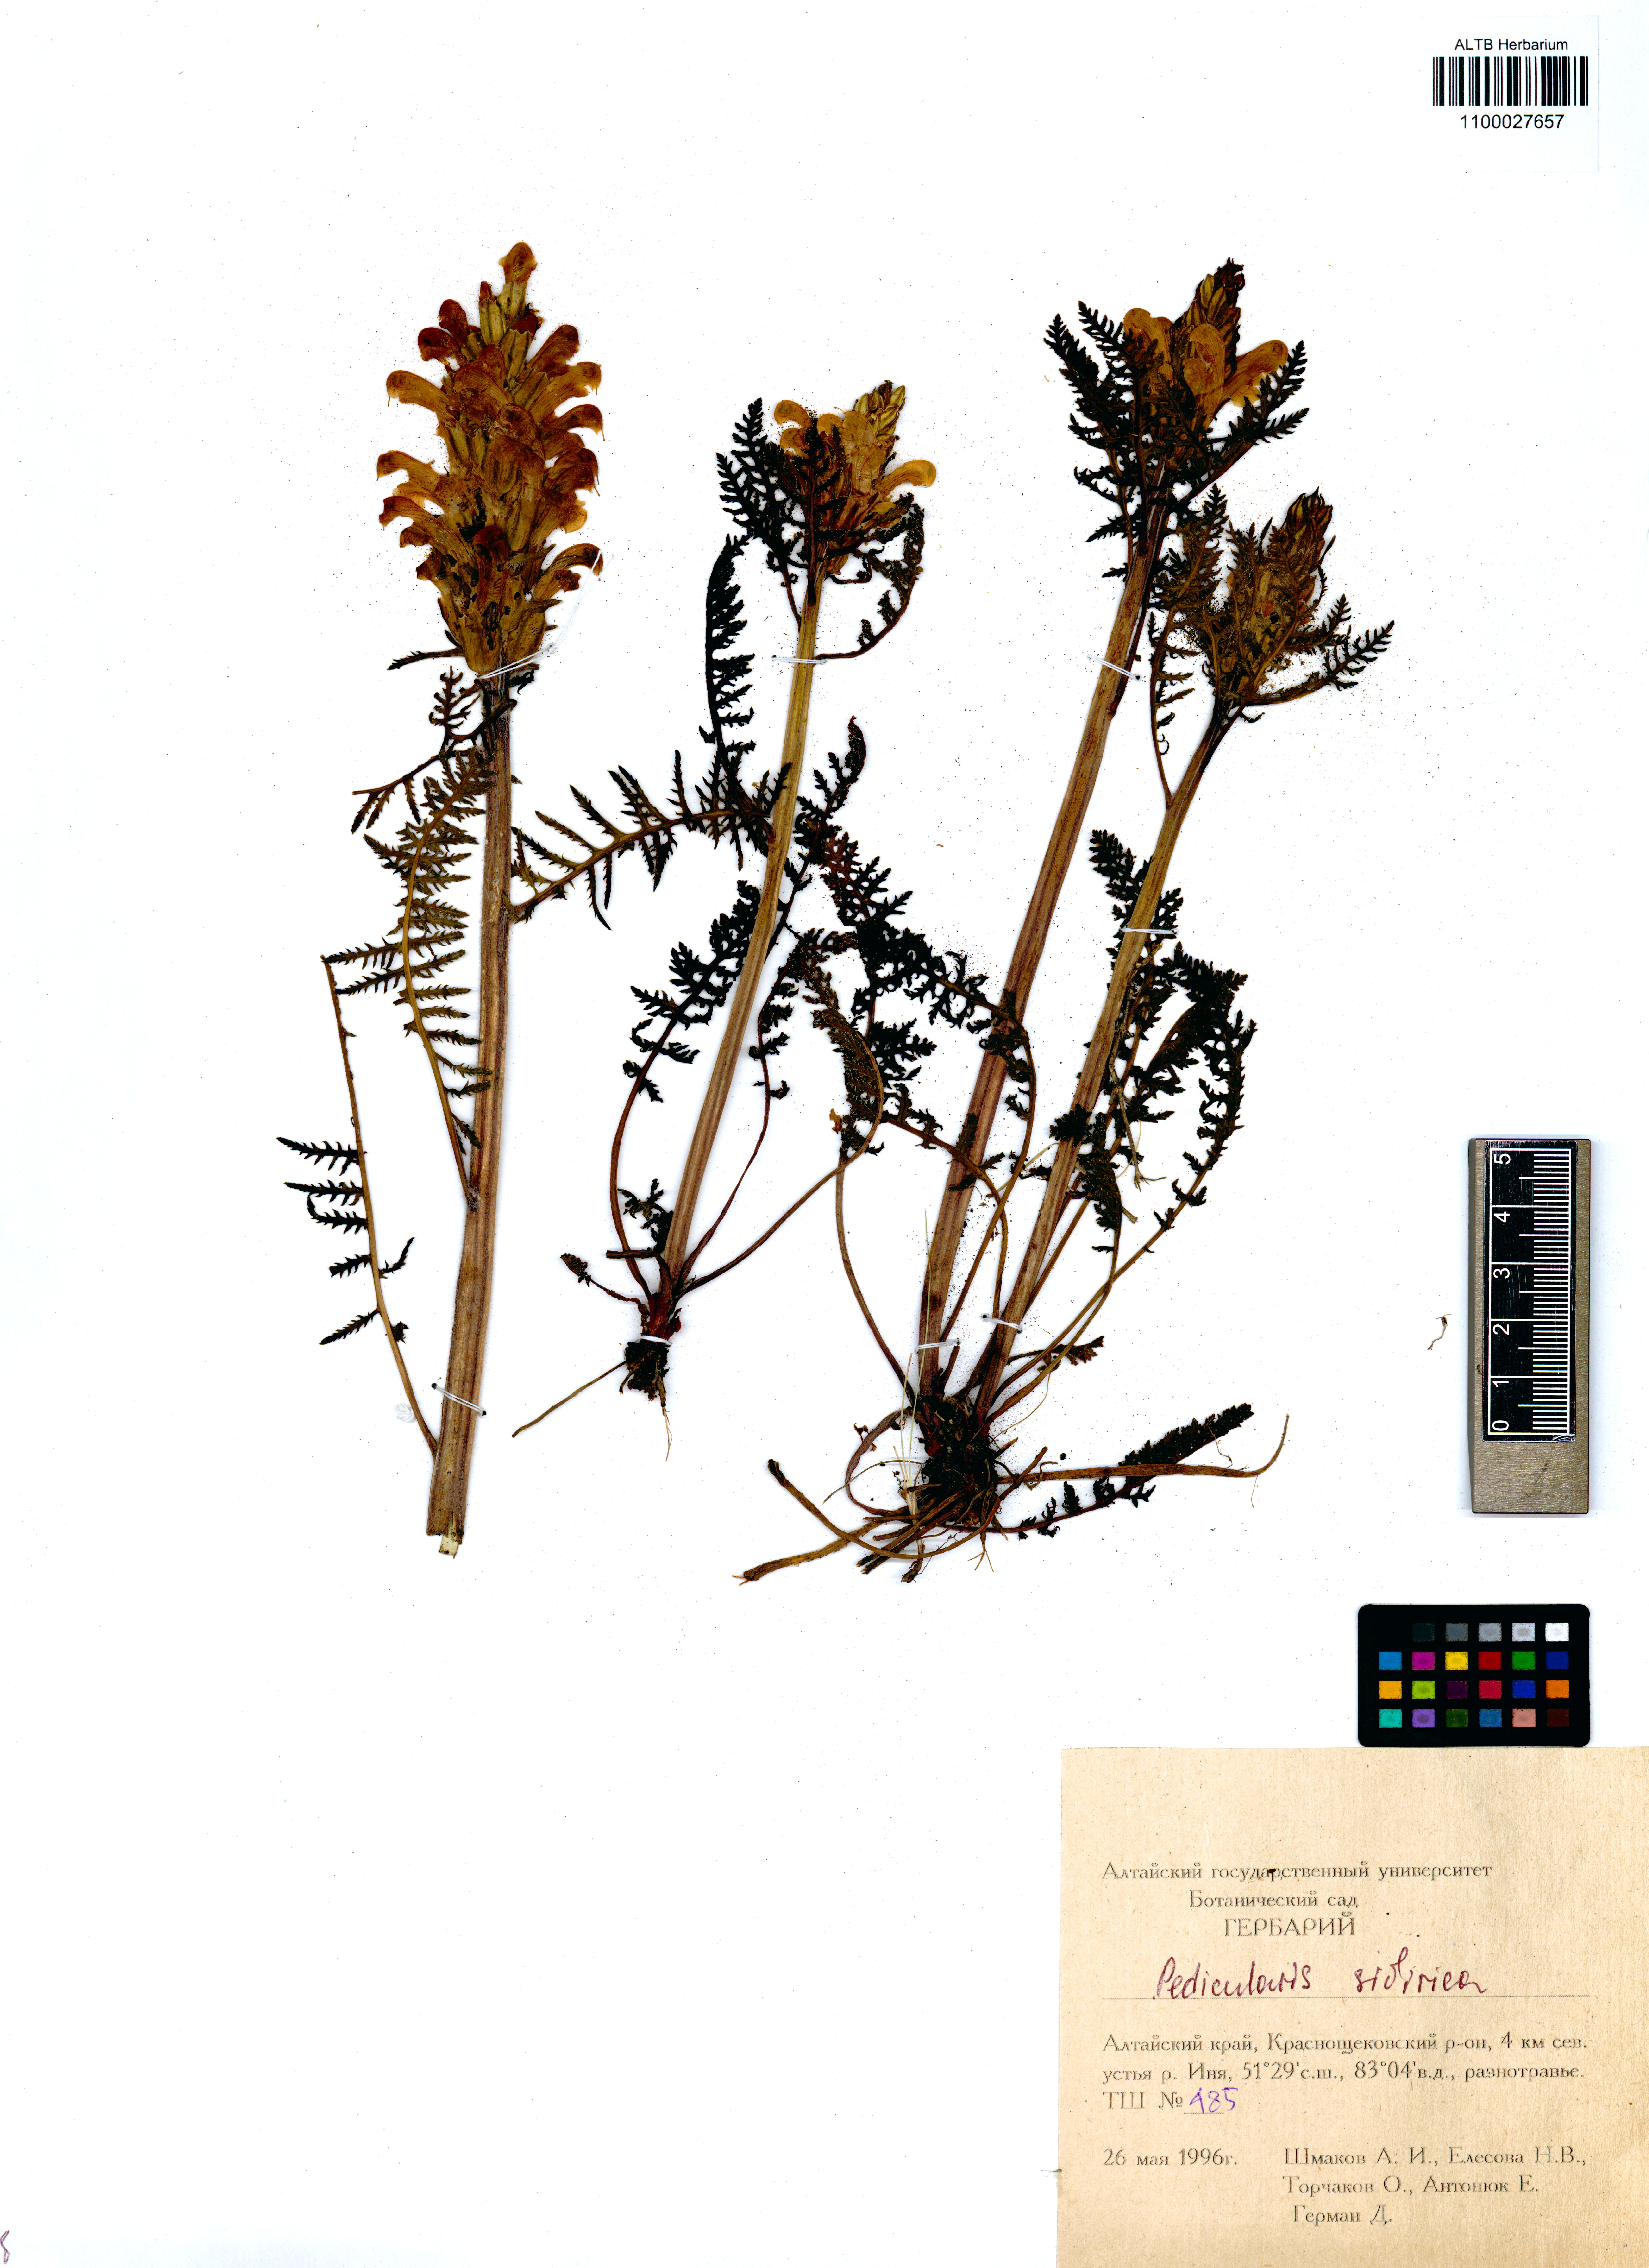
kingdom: Plantae
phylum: Tracheophyta
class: Magnoliopsida
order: Lamiales
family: Orobanchaceae
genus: Pedicularis
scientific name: Pedicularis sibirica
